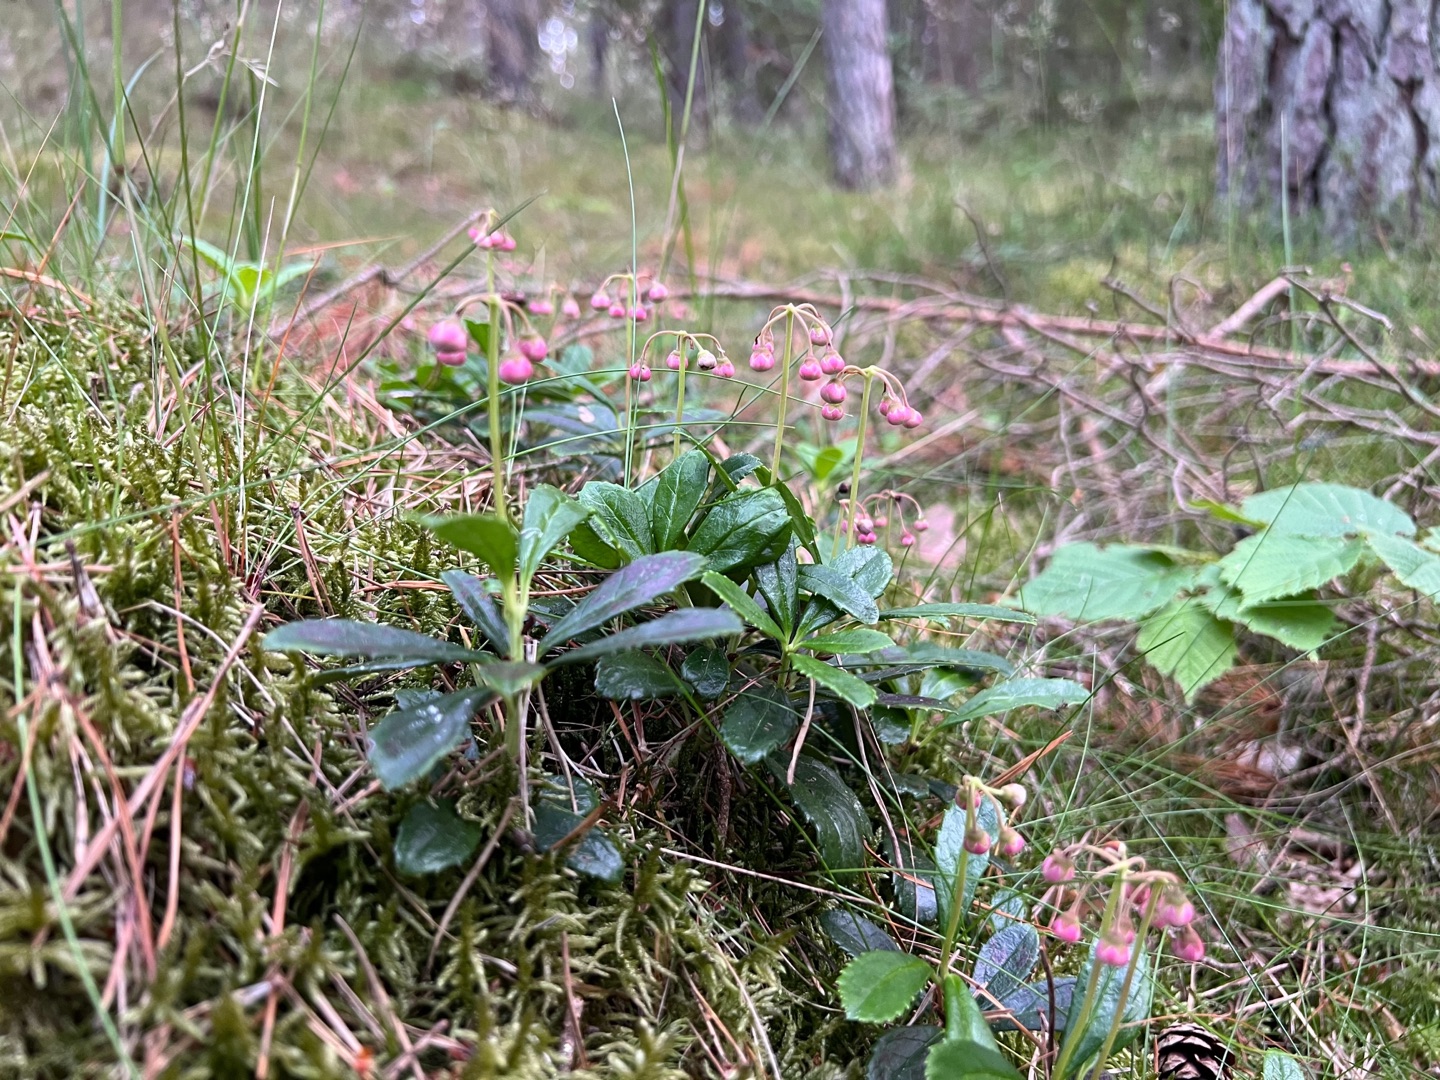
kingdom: Plantae
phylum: Tracheophyta
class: Magnoliopsida
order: Ericales
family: Ericaceae
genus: Chimaphila
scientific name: Chimaphila umbellata
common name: Skærm-vintergrøn
